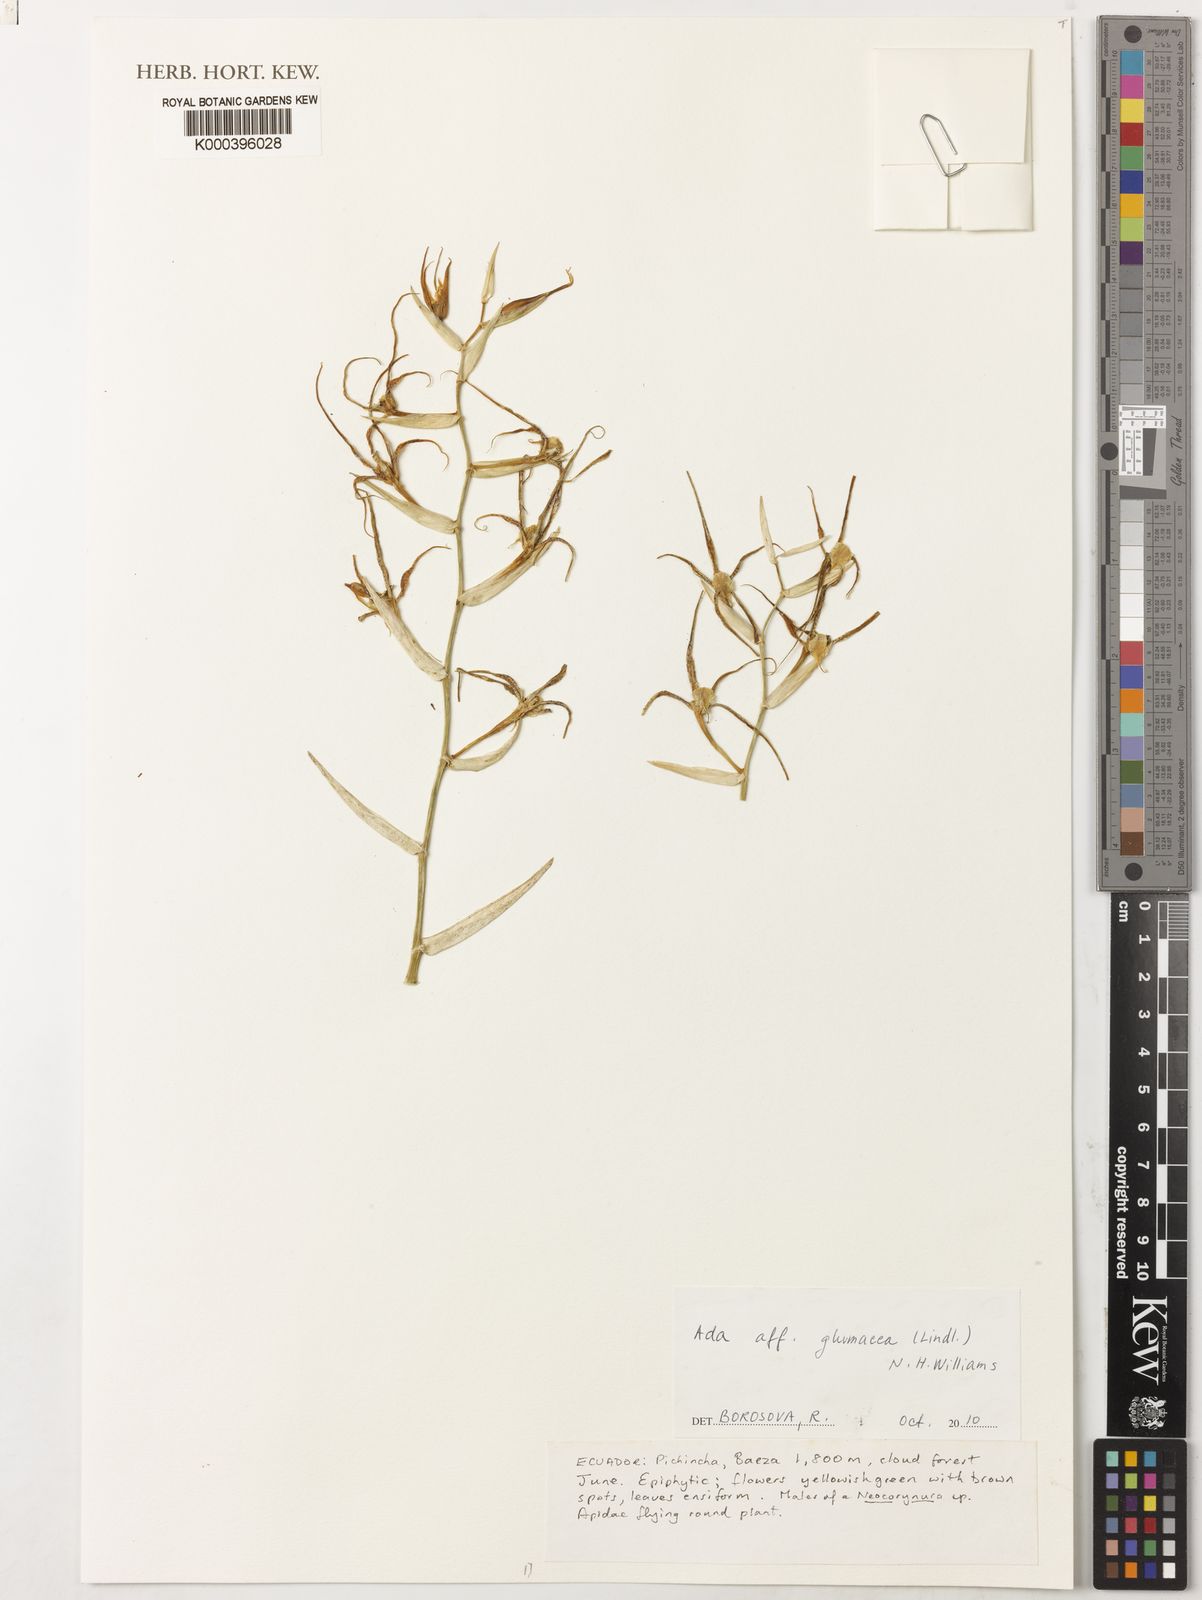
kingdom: Plantae
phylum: Tracheophyta
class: Liliopsida
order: Asparagales
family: Orchidaceae
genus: Brassia
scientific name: Brassia
